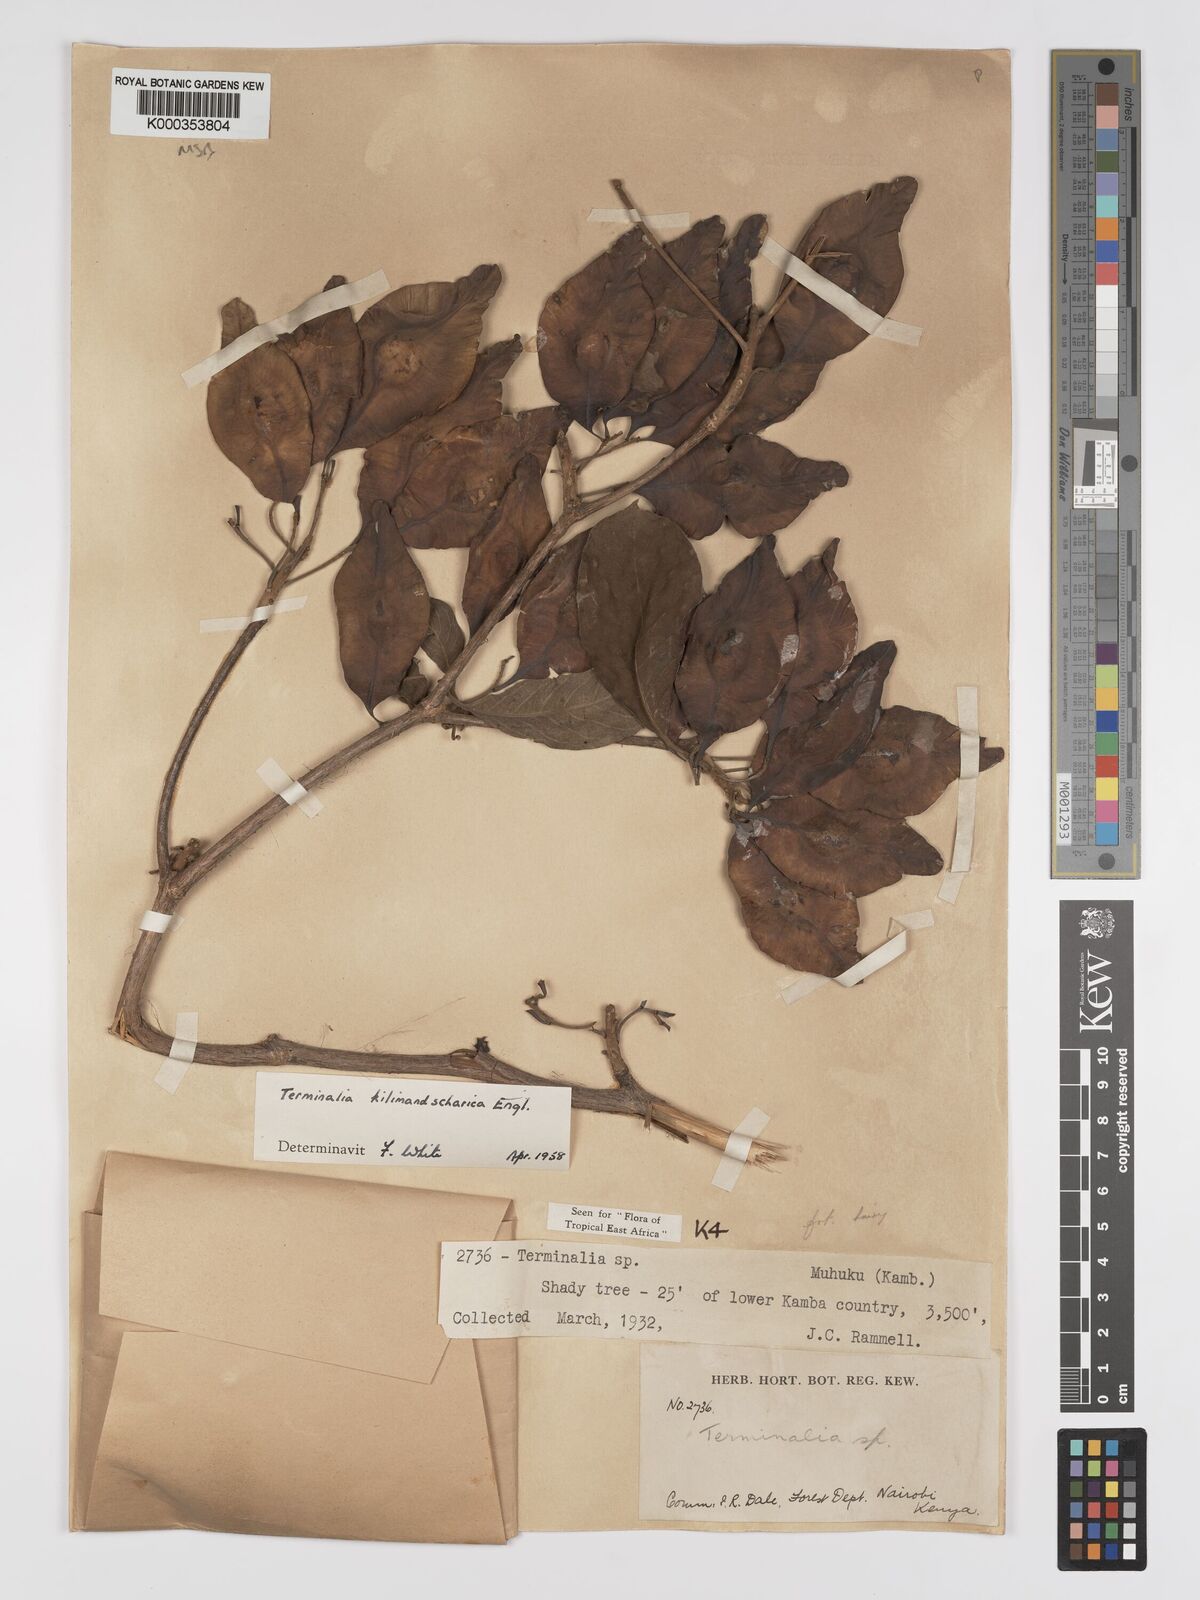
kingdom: Plantae
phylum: Tracheophyta
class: Magnoliopsida
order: Myrtales
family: Combretaceae
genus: Terminalia
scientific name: Terminalia kilimandscharica
